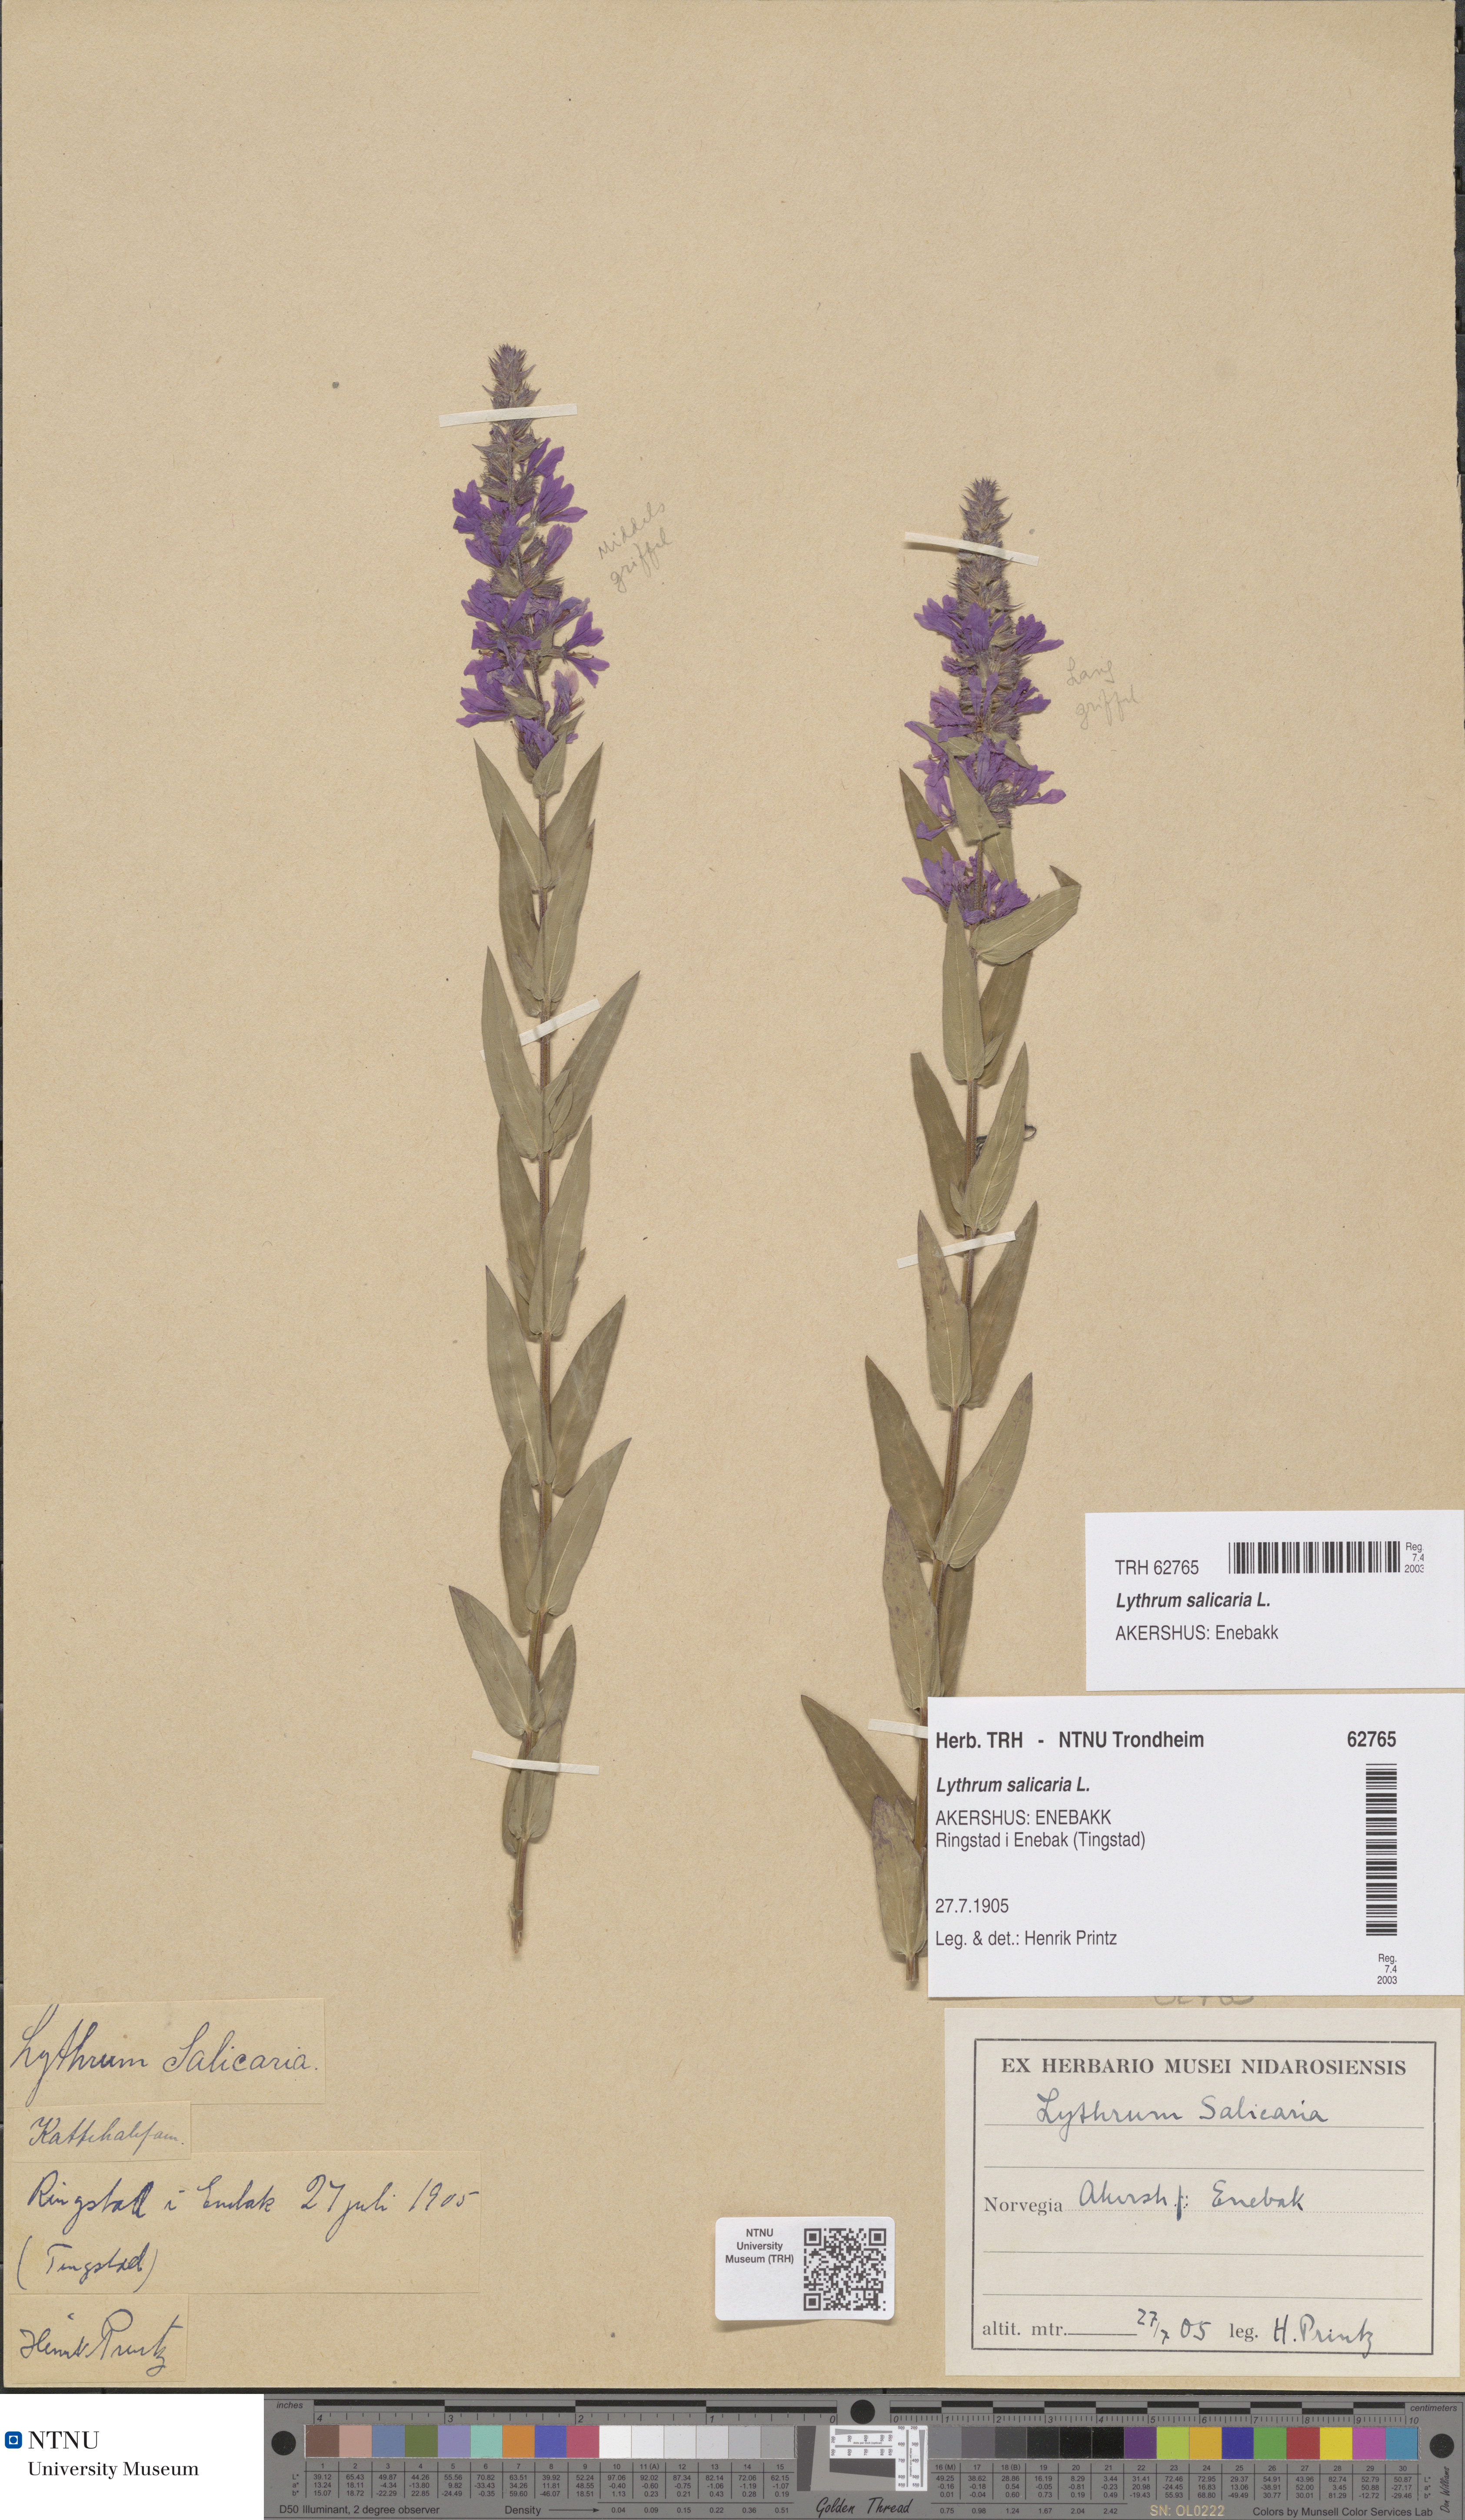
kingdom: Plantae
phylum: Tracheophyta
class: Magnoliopsida
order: Myrtales
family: Lythraceae
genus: Lythrum
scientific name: Lythrum salicaria
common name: Purple loosestrife
